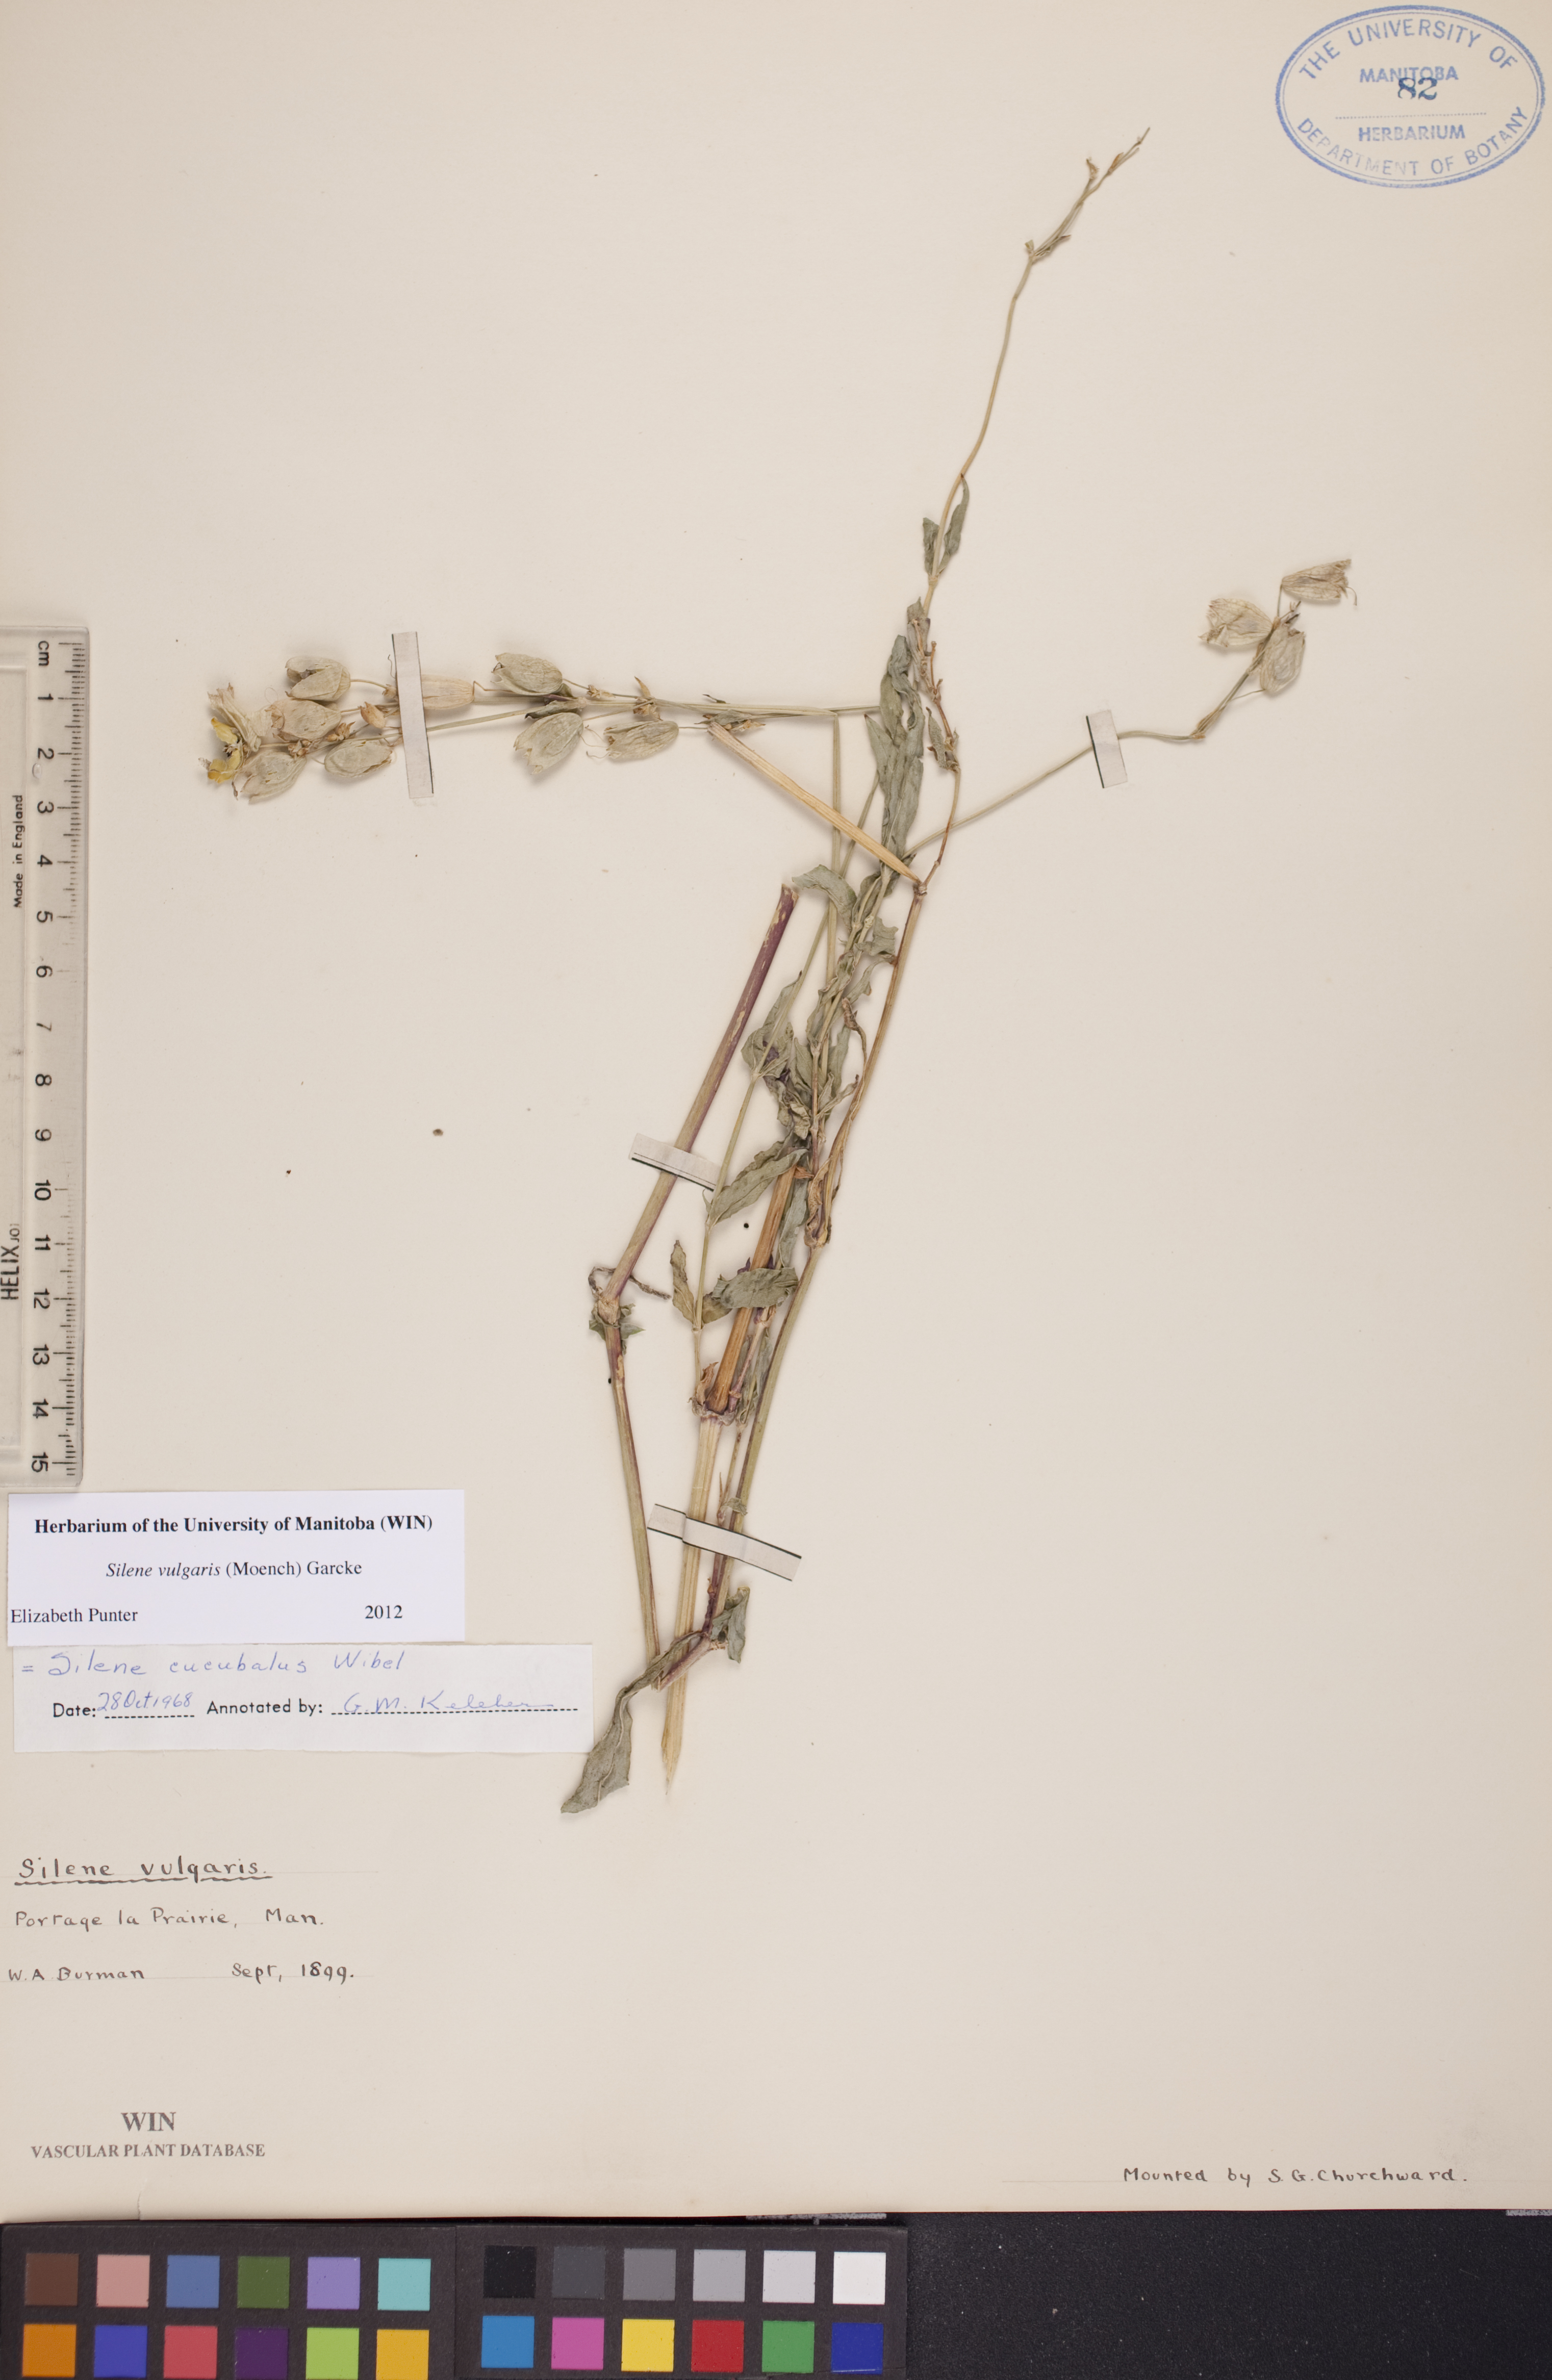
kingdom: Plantae
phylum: Tracheophyta
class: Magnoliopsida
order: Caryophyllales
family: Caryophyllaceae
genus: Silene
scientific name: Silene vulgaris
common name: Bladder campion
